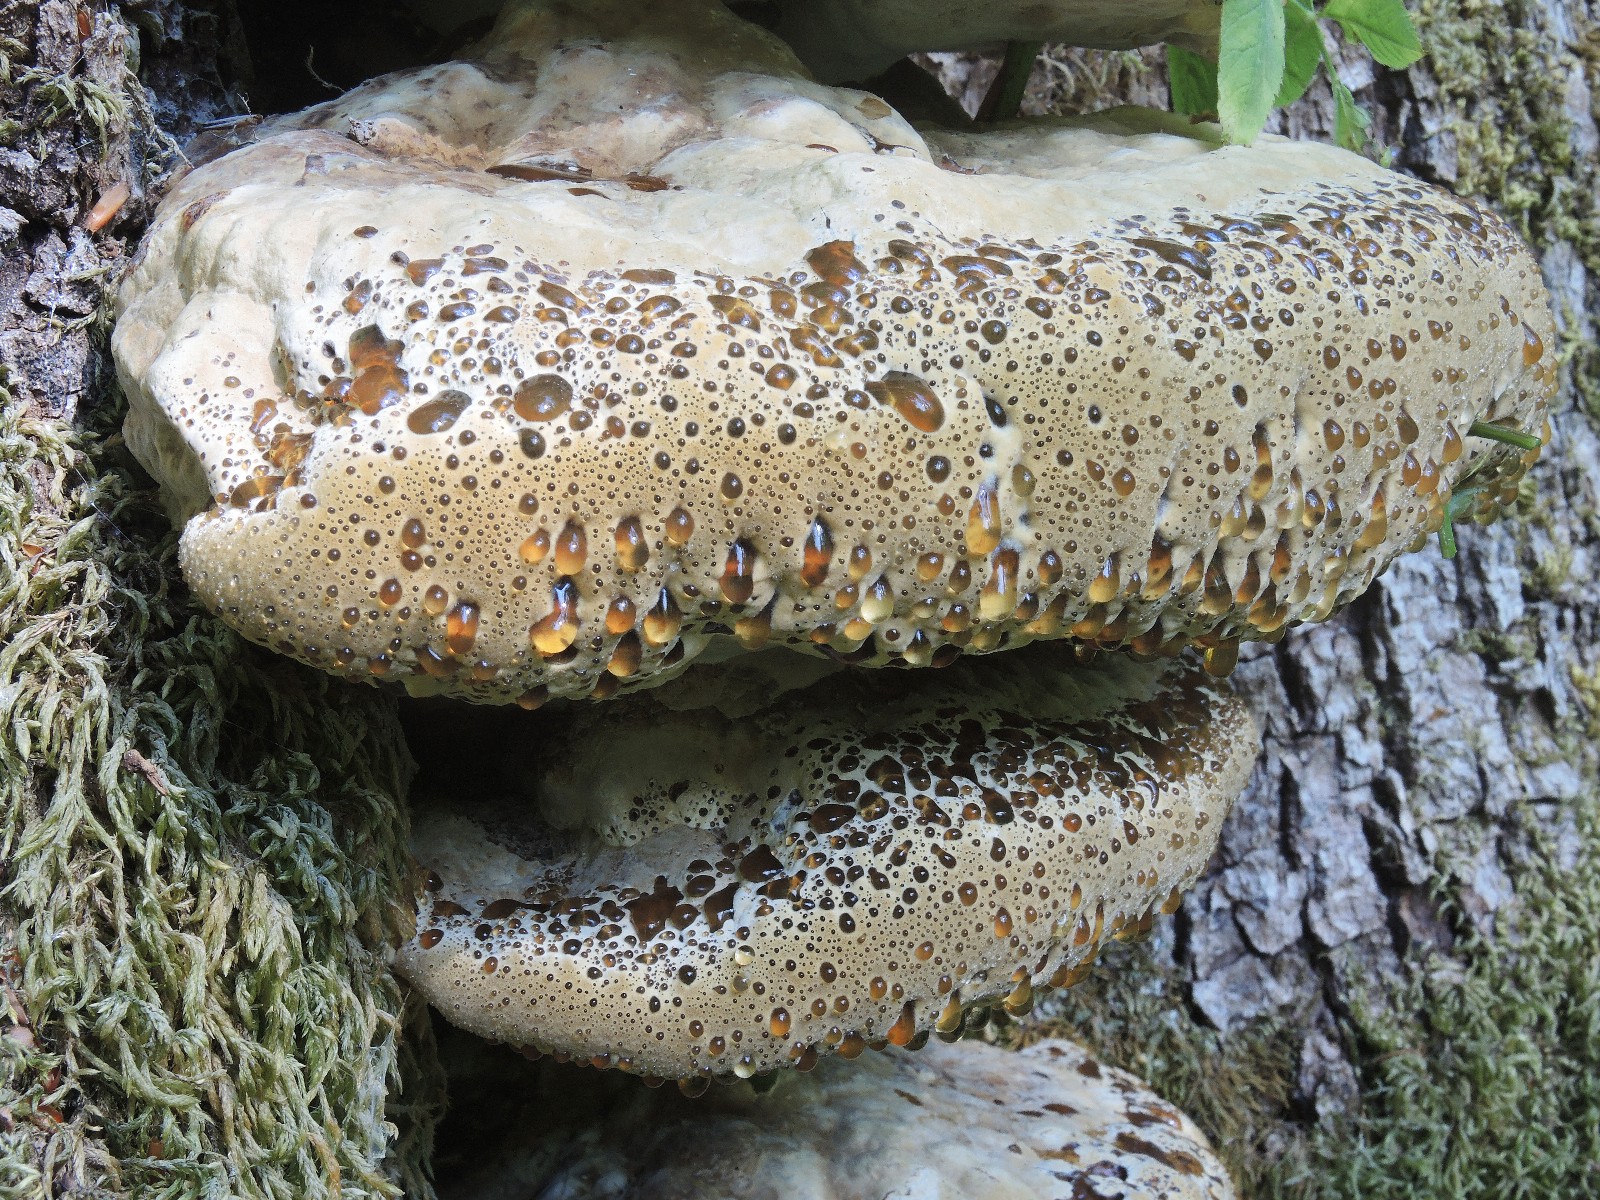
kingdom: Fungi
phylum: Basidiomycota
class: Agaricomycetes
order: Hymenochaetales
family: Hymenochaetaceae
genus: Pseudoinonotus
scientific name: Pseudoinonotus dryadeus
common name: ege-spejlporesvamp
